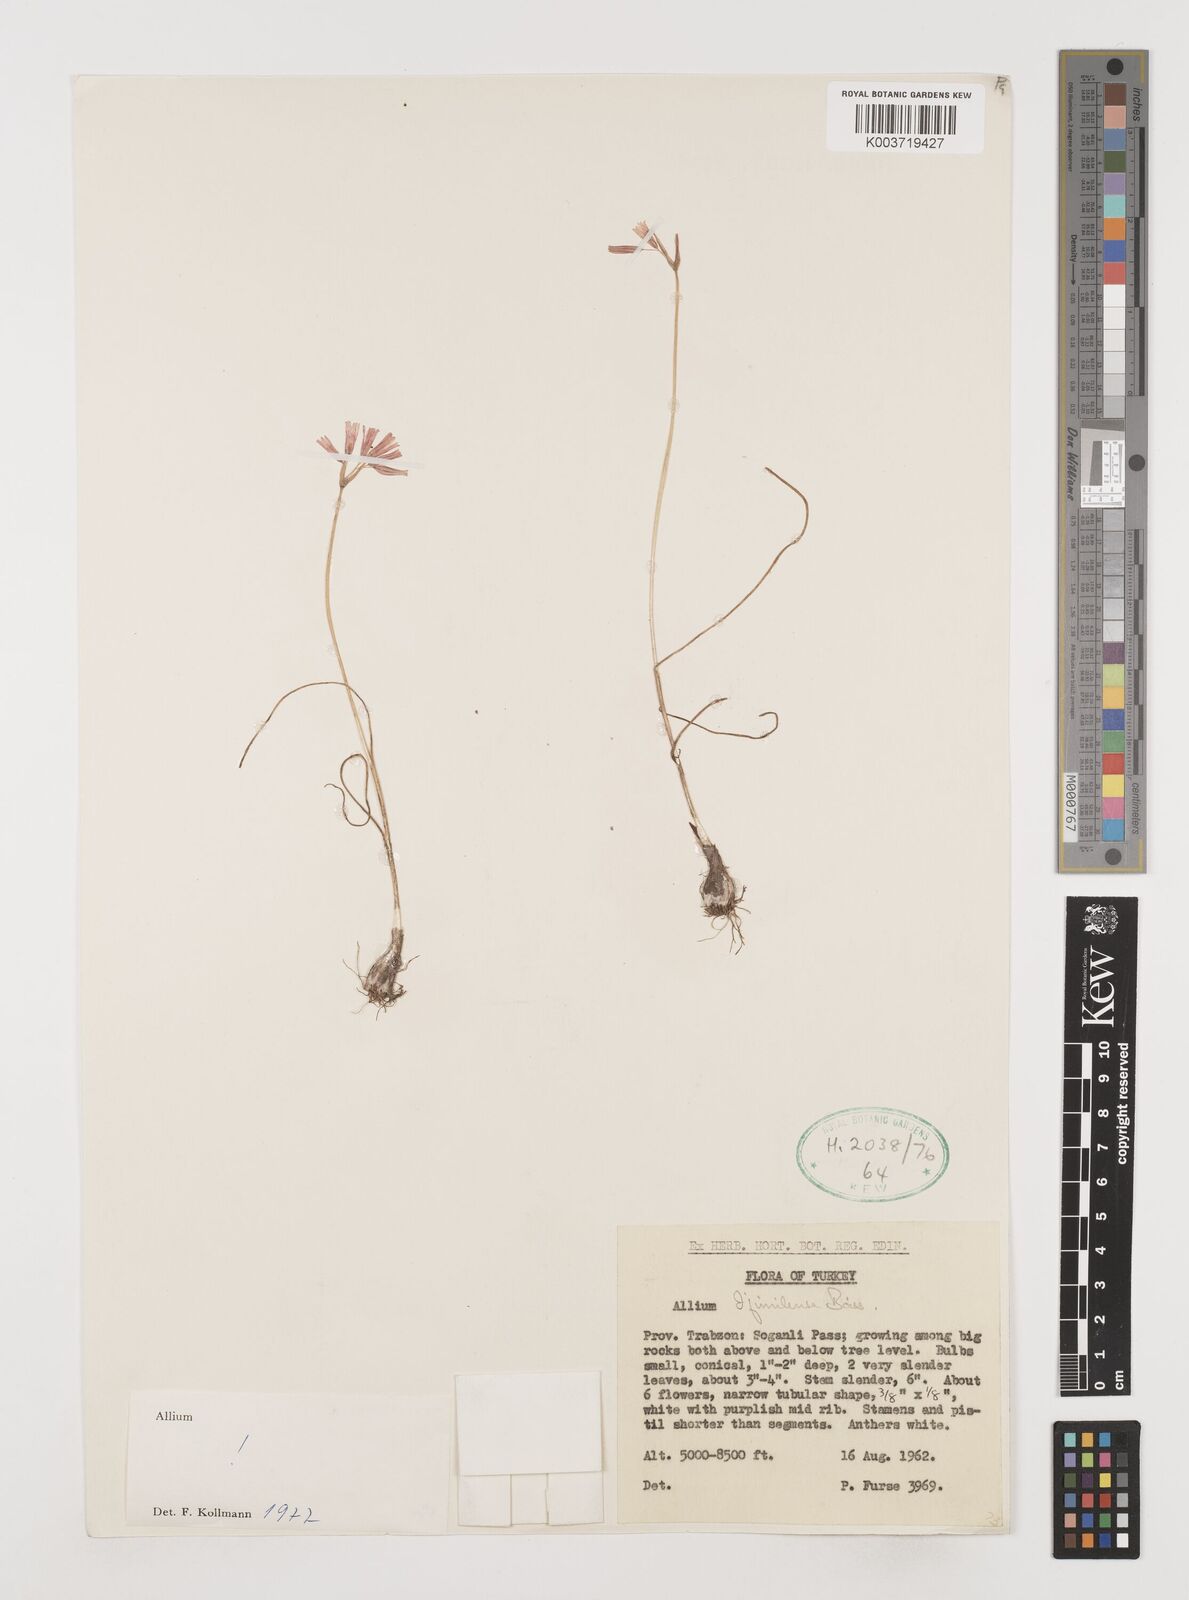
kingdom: Plantae
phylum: Tracheophyta
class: Liliopsida
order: Asparagales
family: Amaryllidaceae
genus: Allium
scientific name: Allium djimilense
